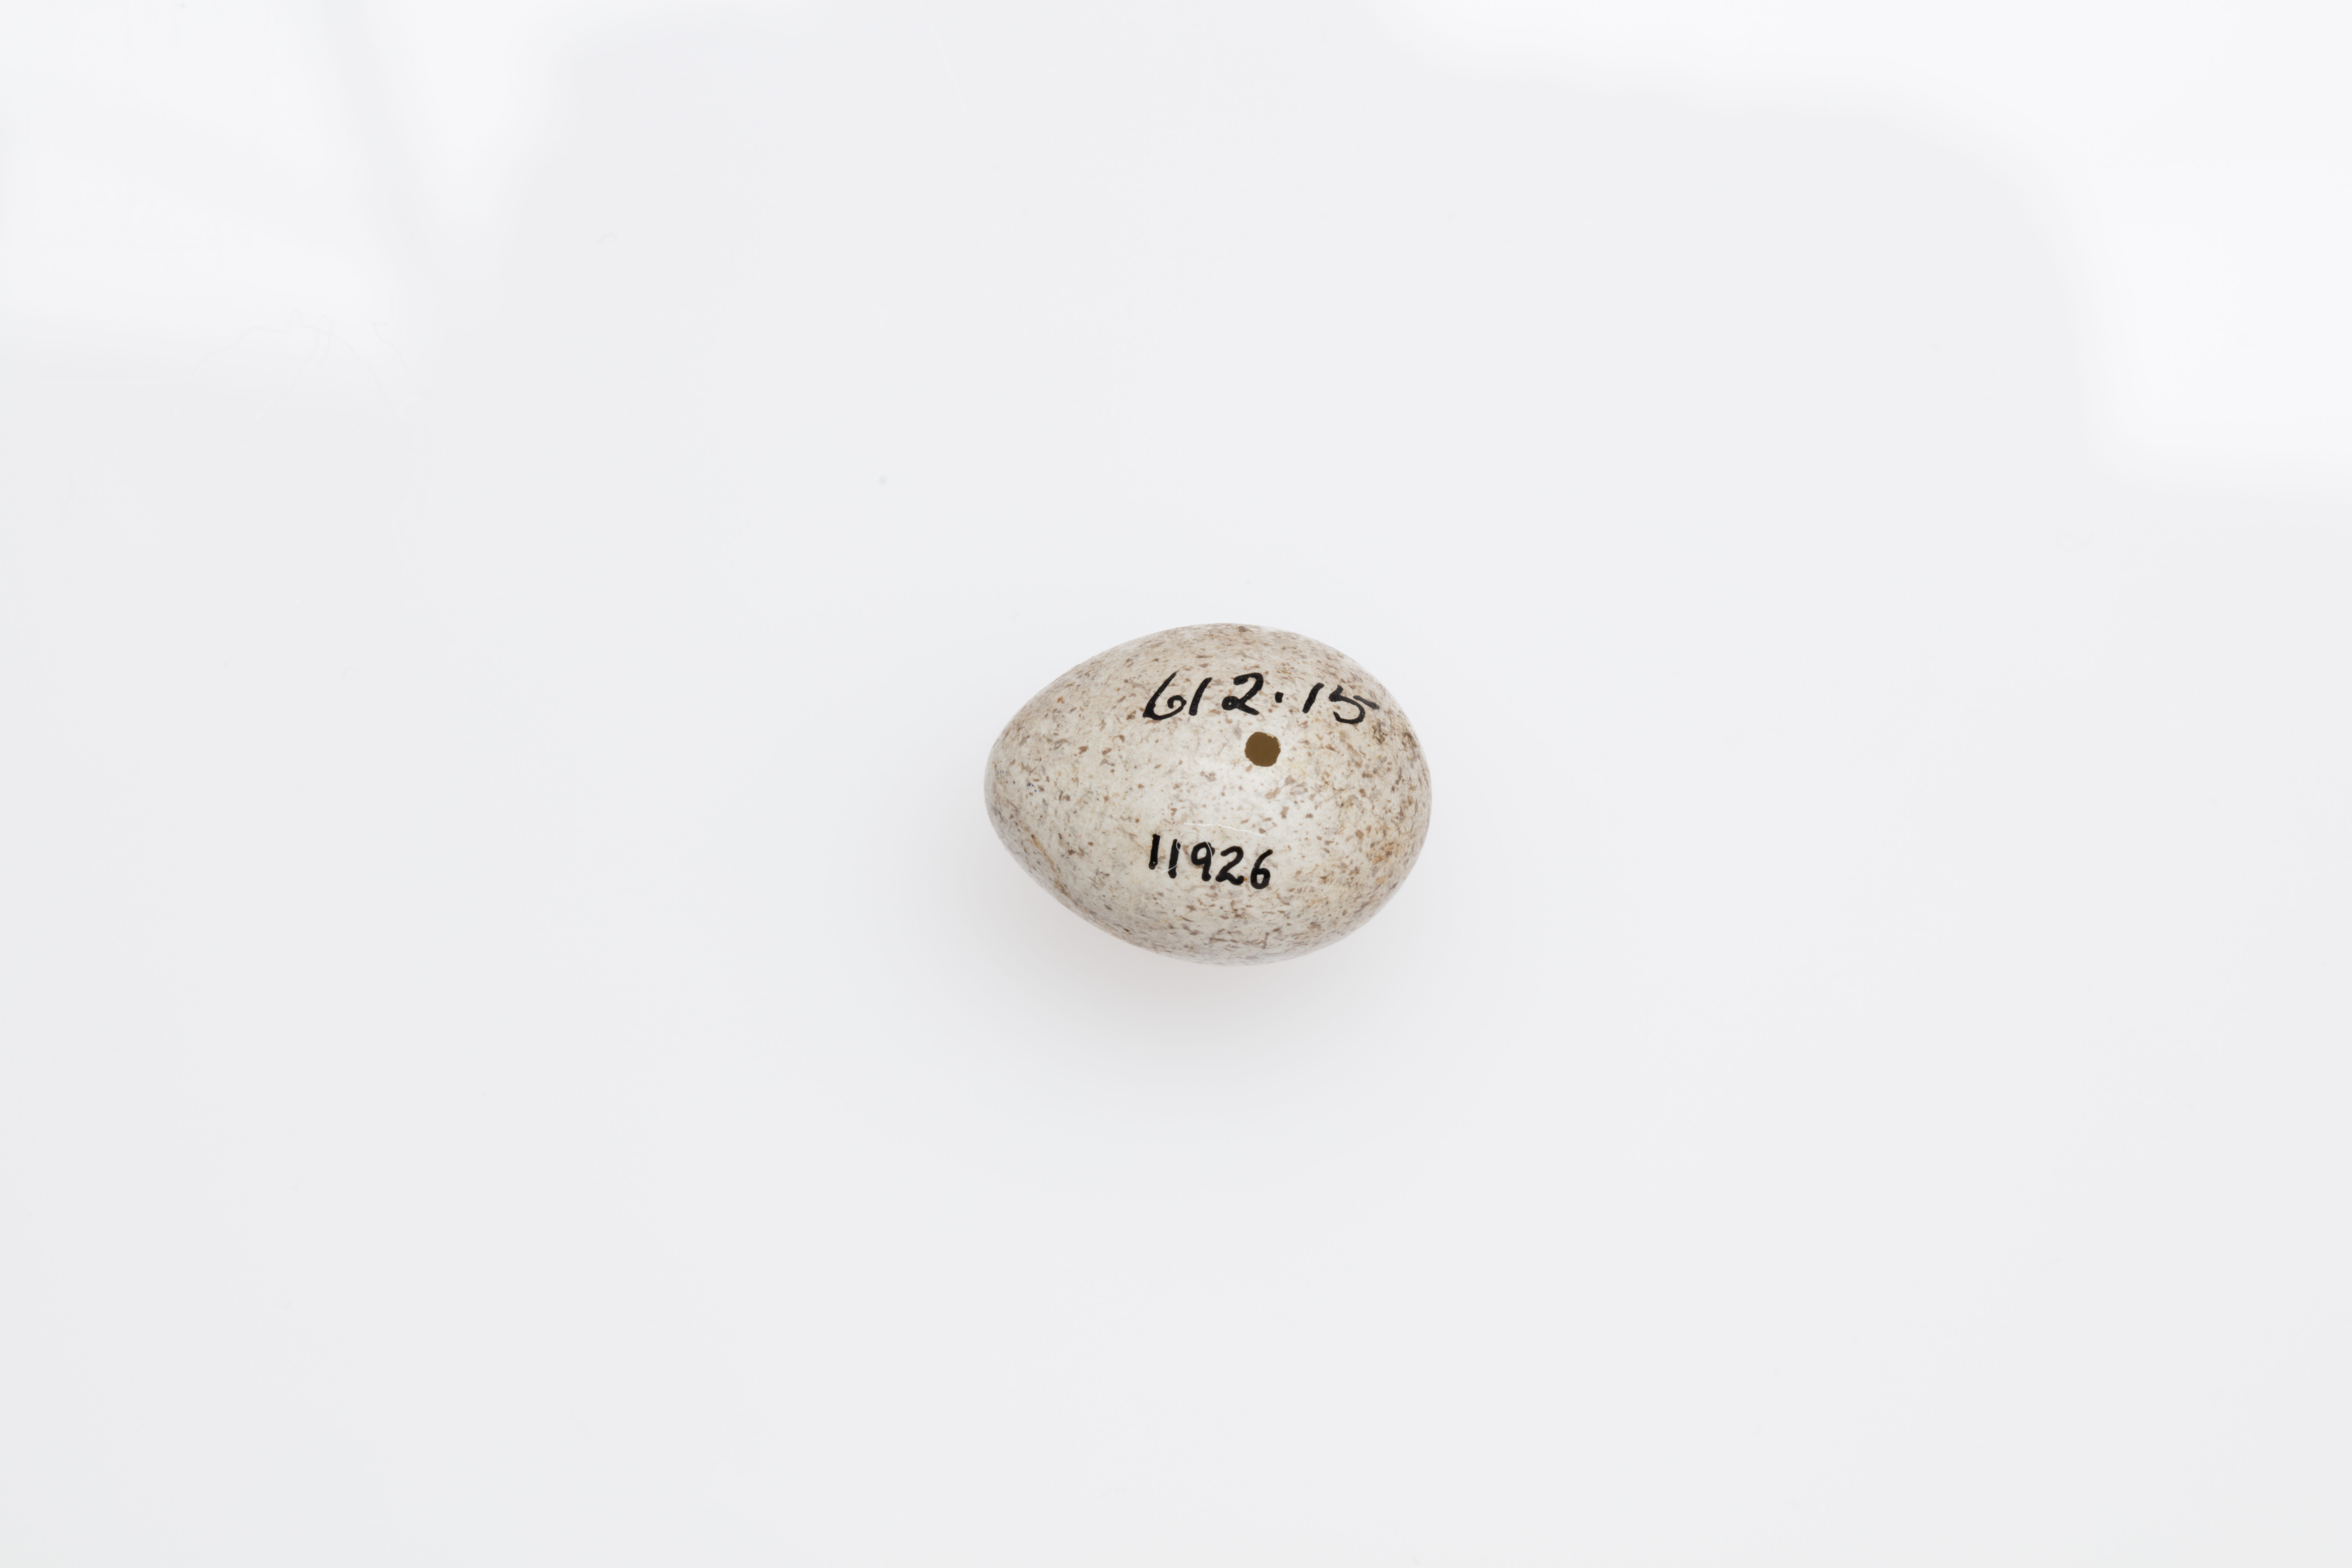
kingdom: Animalia
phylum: Chordata
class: Aves
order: Passeriformes
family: Motacillidae
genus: Motacilla
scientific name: Motacilla alba
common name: White wagtail
